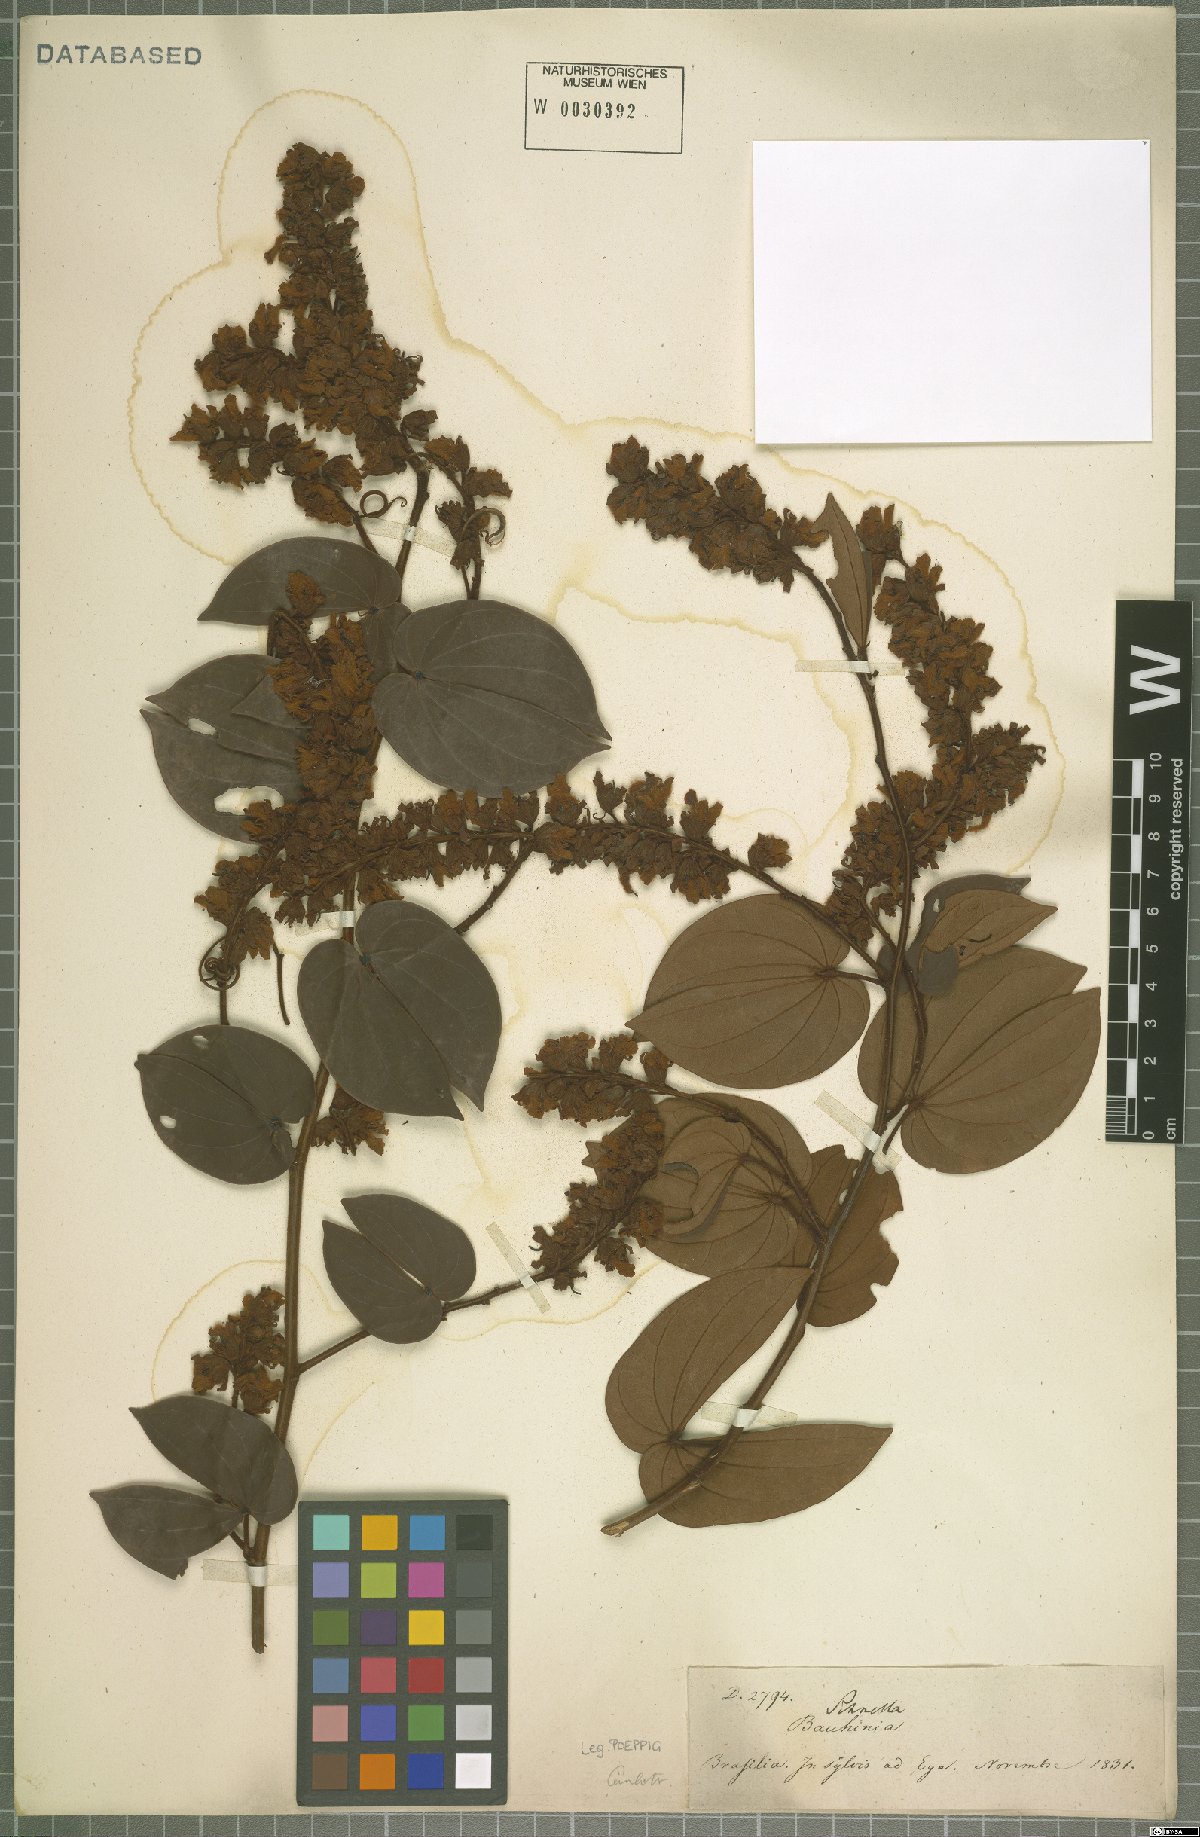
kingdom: Plantae
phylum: Tracheophyta
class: Magnoliopsida
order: Fabales
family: Fabaceae
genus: Bauhinia
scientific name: Bauhinia
